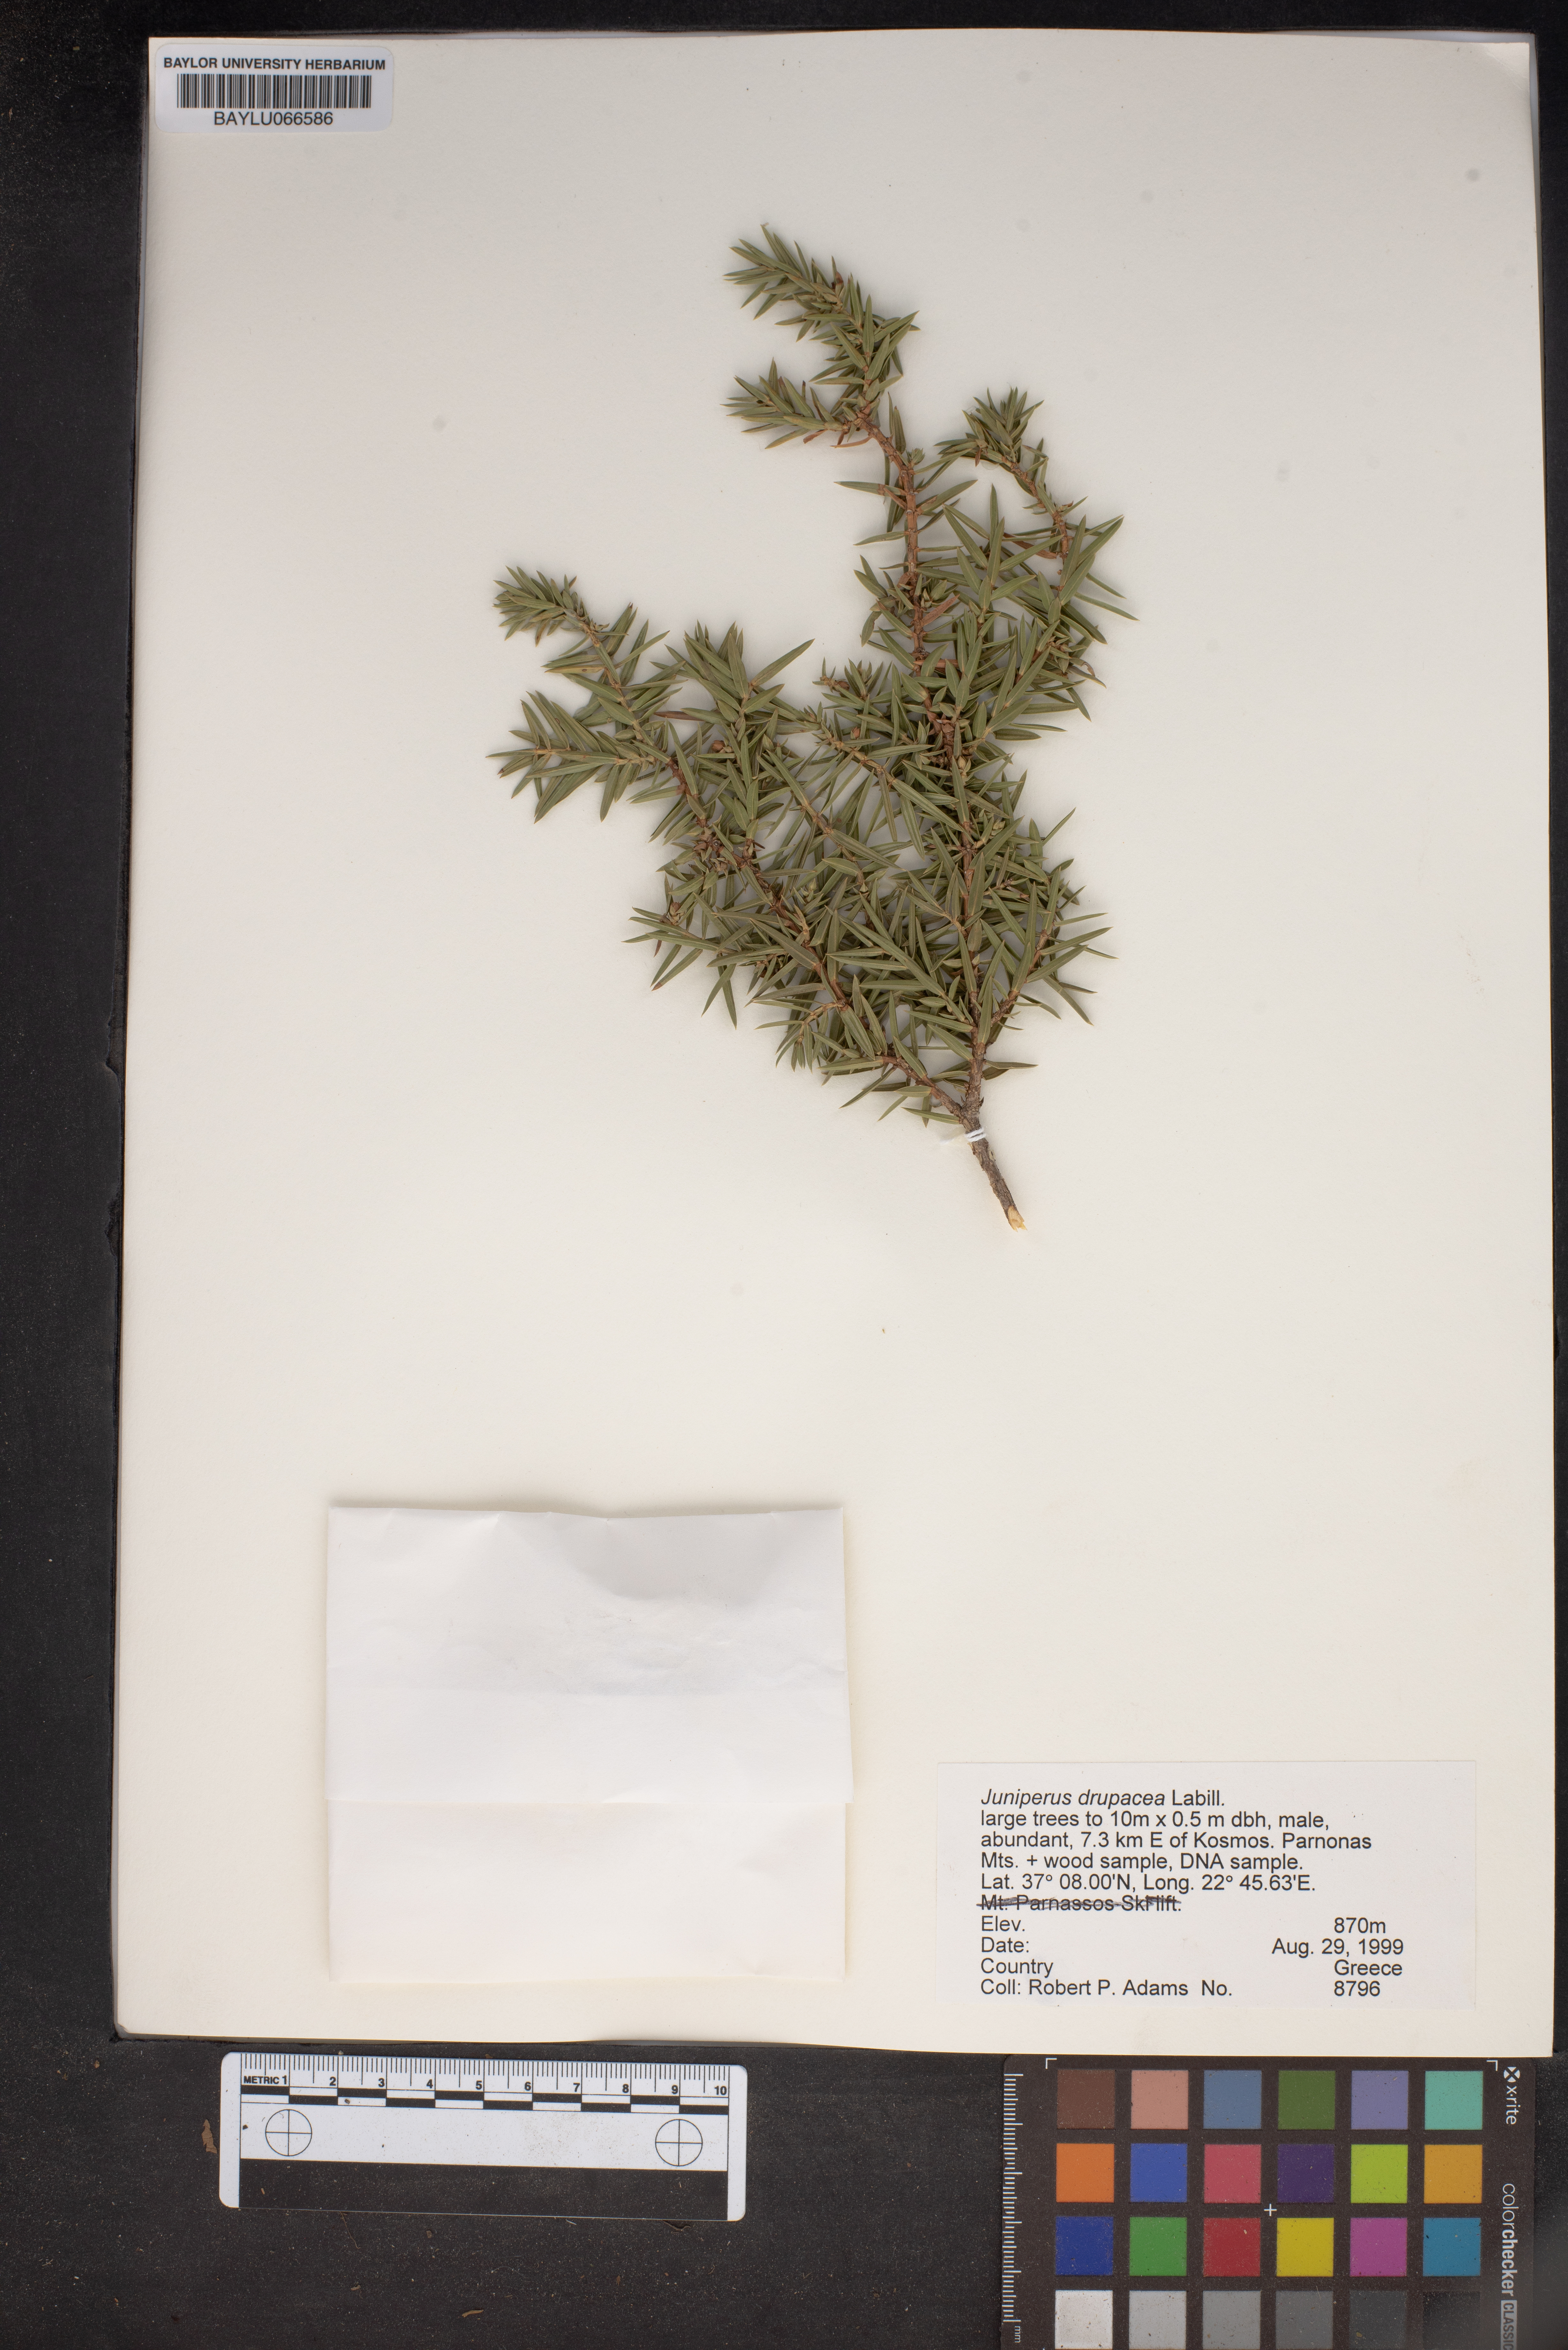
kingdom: Plantae
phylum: Tracheophyta
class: Pinopsida
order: Pinales
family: Cupressaceae
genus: Juniperus
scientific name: Juniperus drupacea
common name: Syrian juniper
